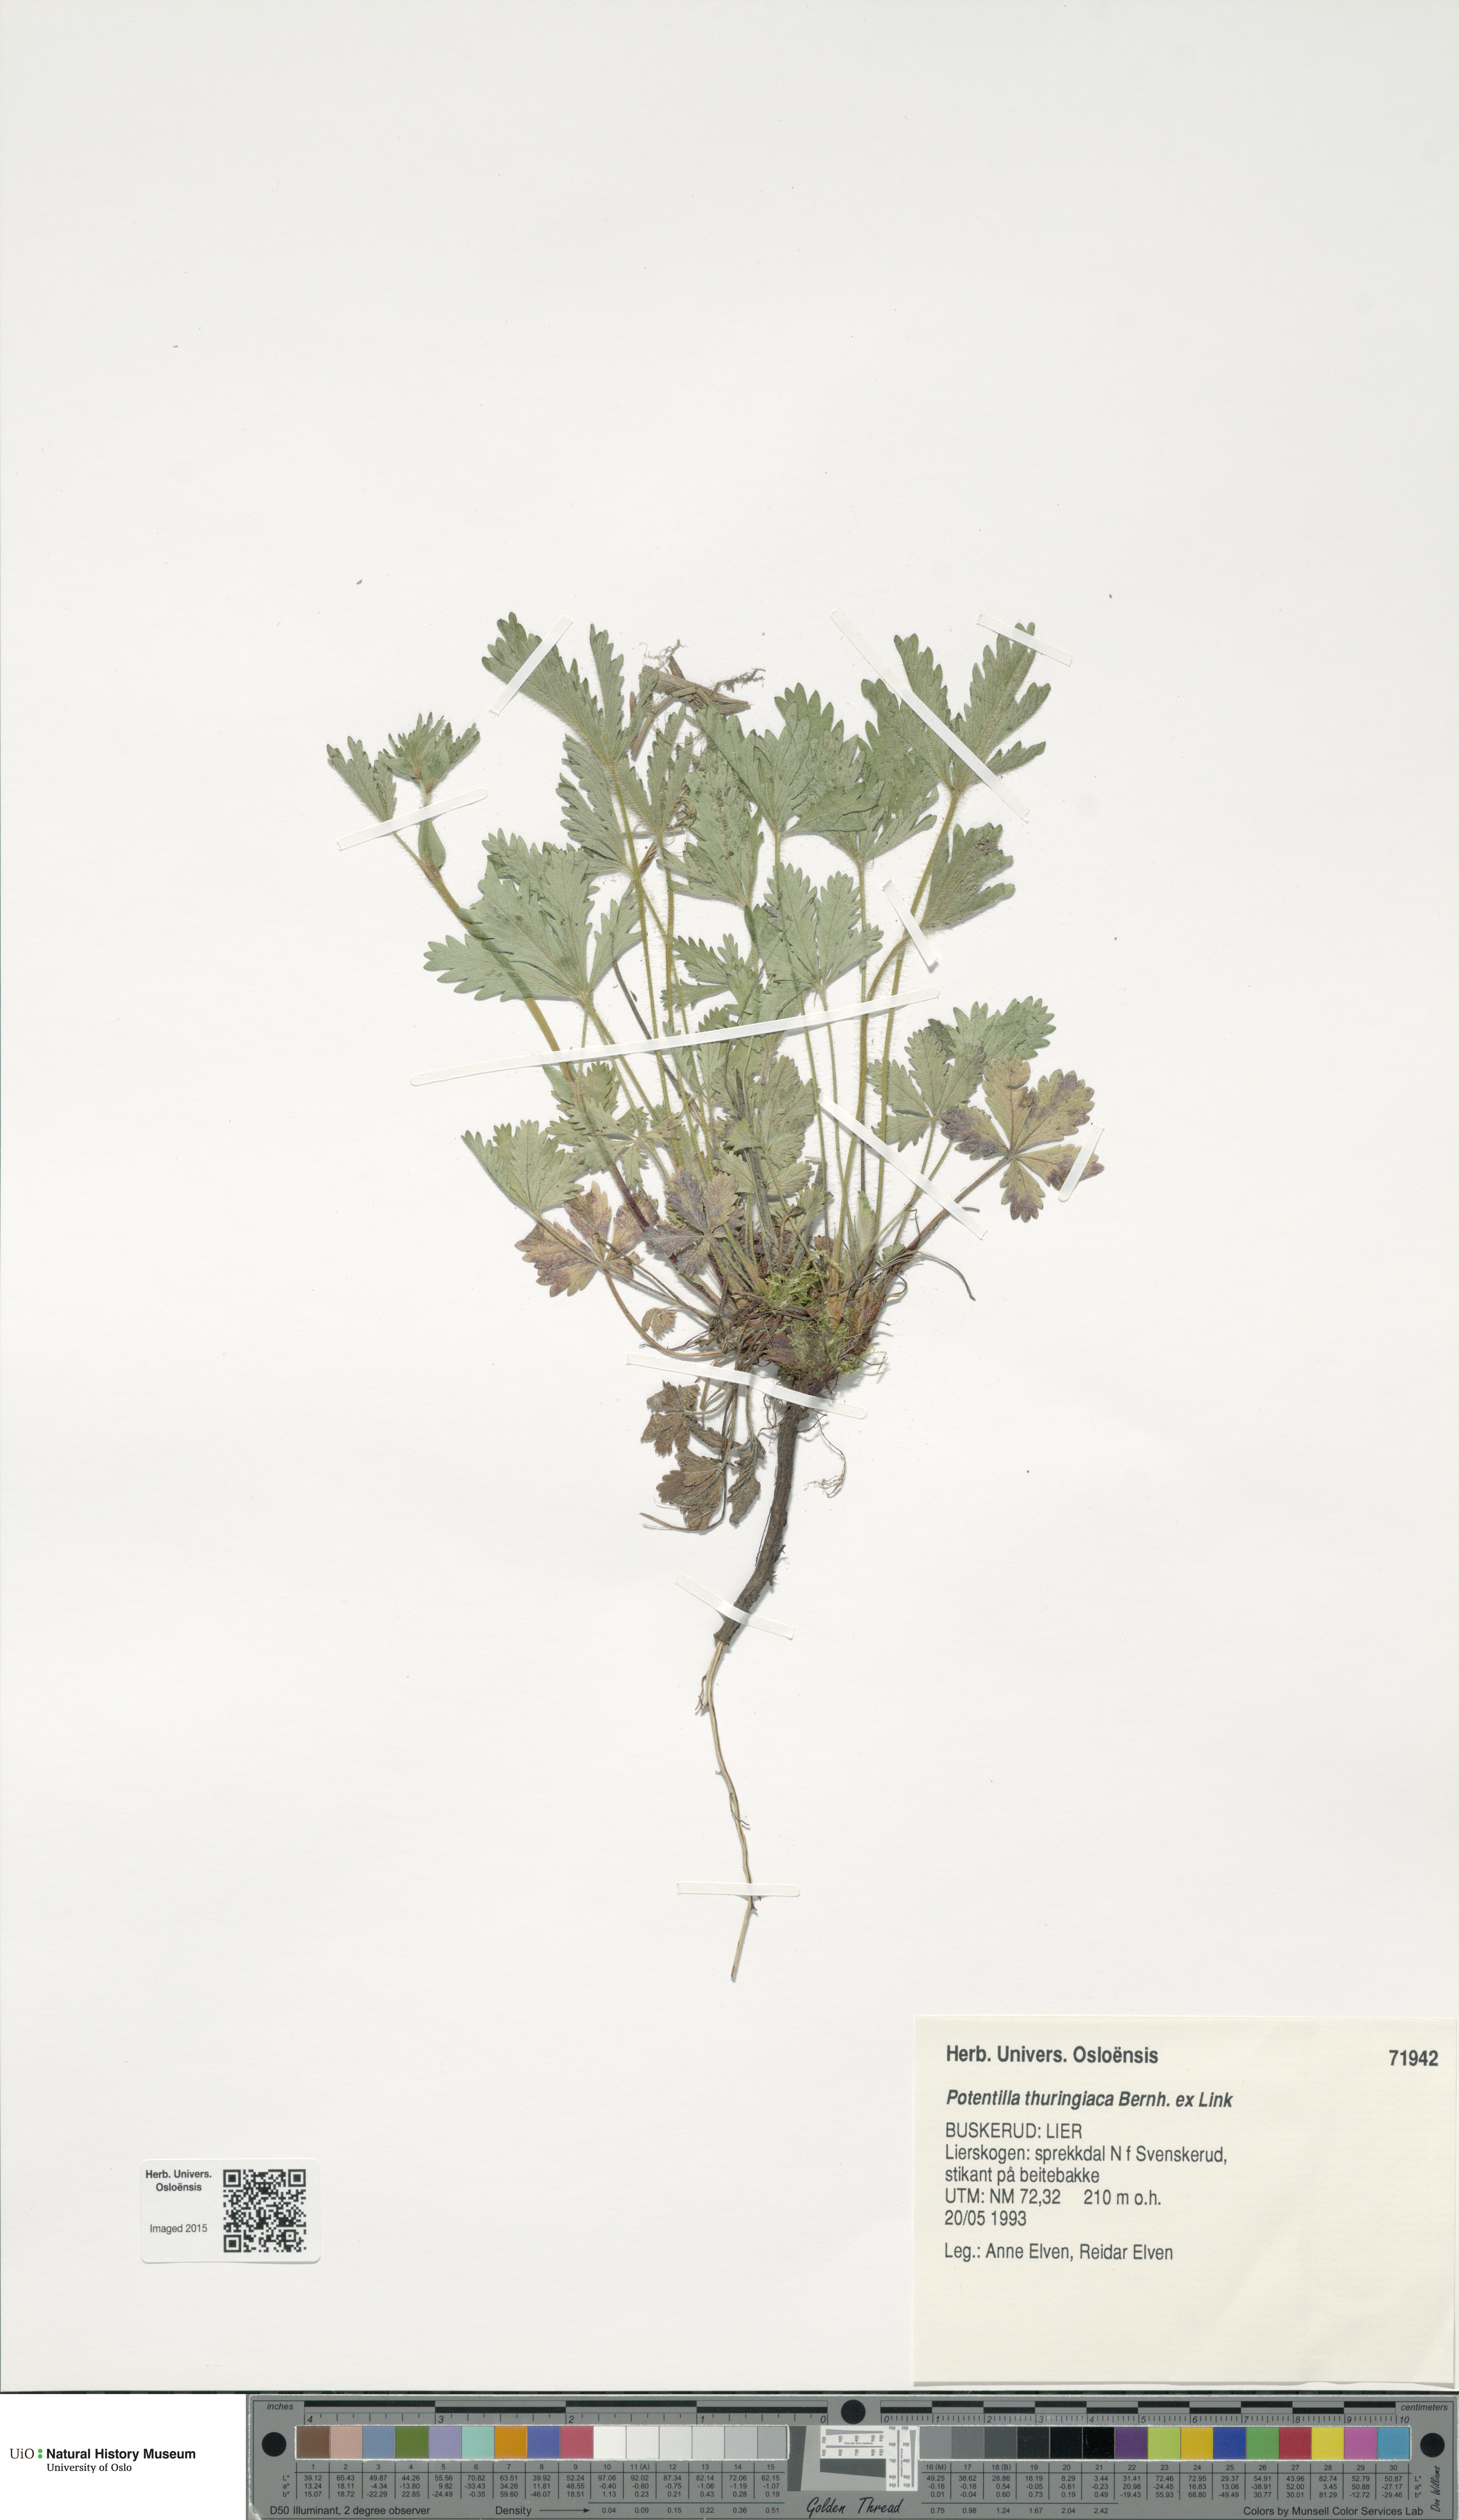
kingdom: Plantae
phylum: Tracheophyta
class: Magnoliopsida
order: Rosales
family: Rosaceae
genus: Potentilla
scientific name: Potentilla thuringiaca
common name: European cinquefoil
